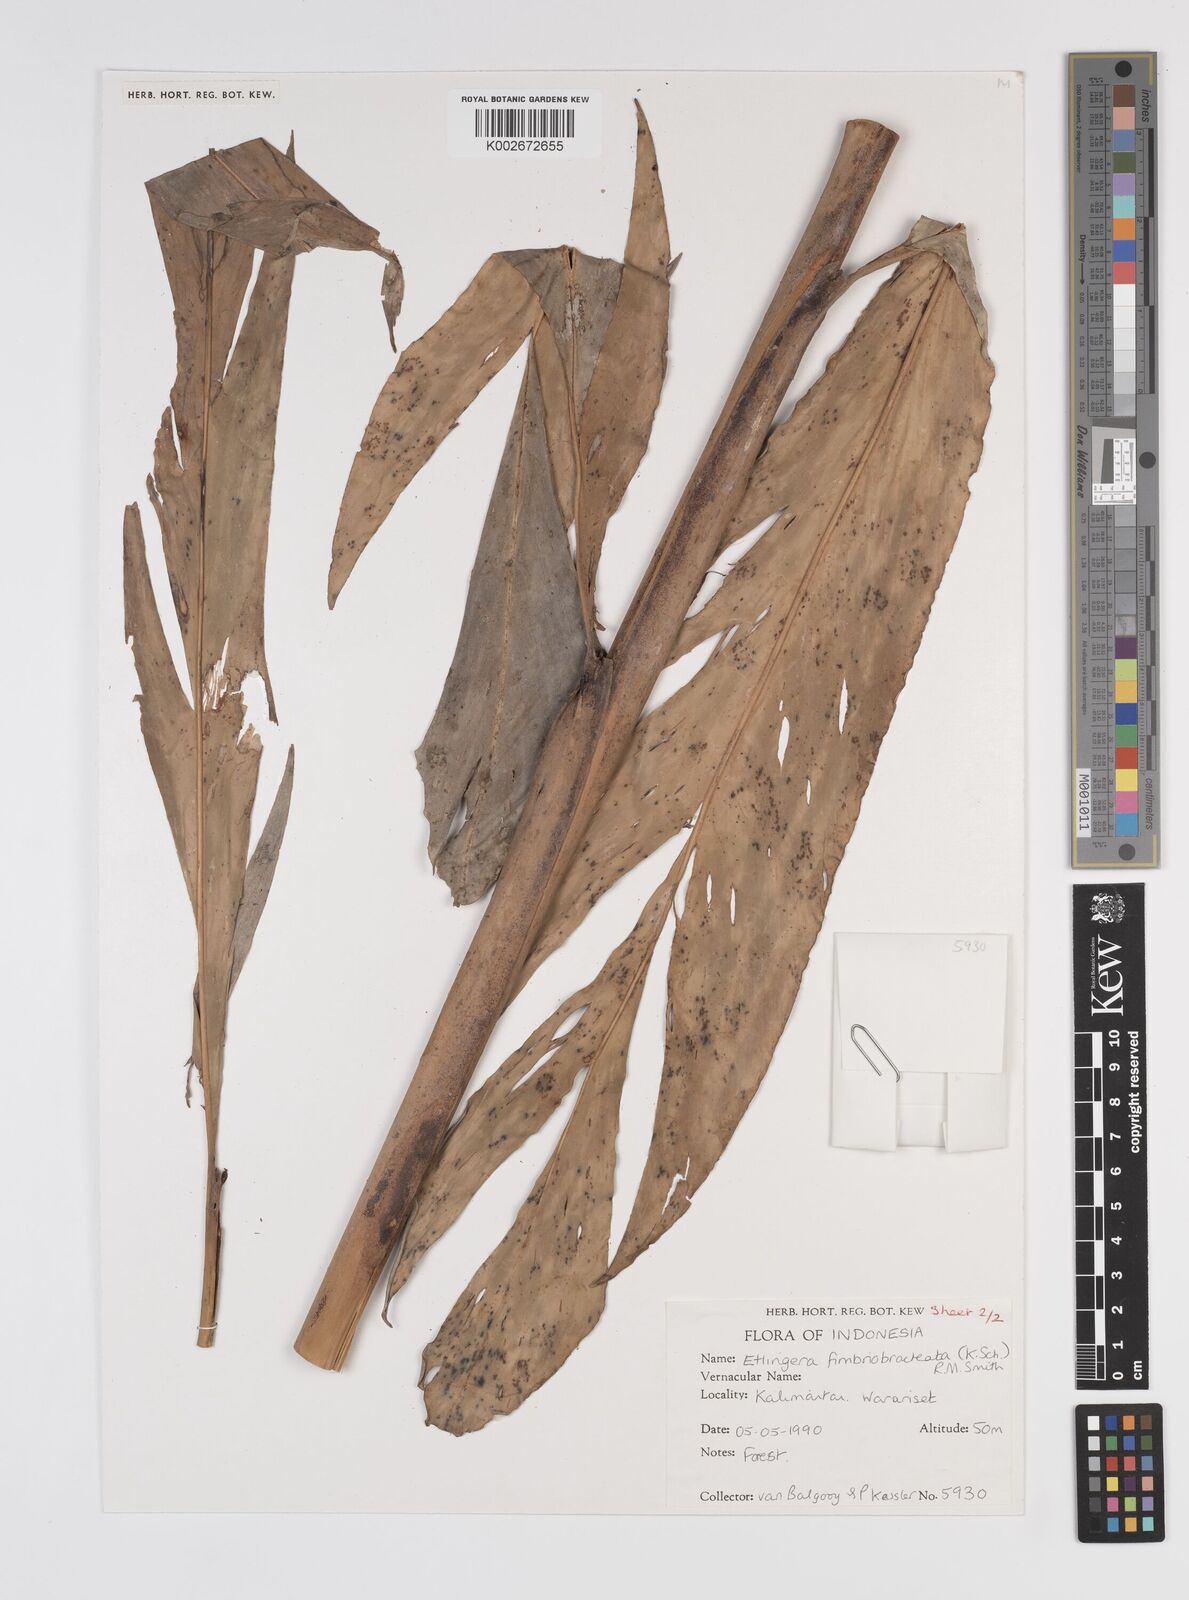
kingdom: Plantae
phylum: Tracheophyta
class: Liliopsida
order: Zingiberales
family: Zingiberaceae
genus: Etlingera
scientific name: Etlingera fimbriobracteata
